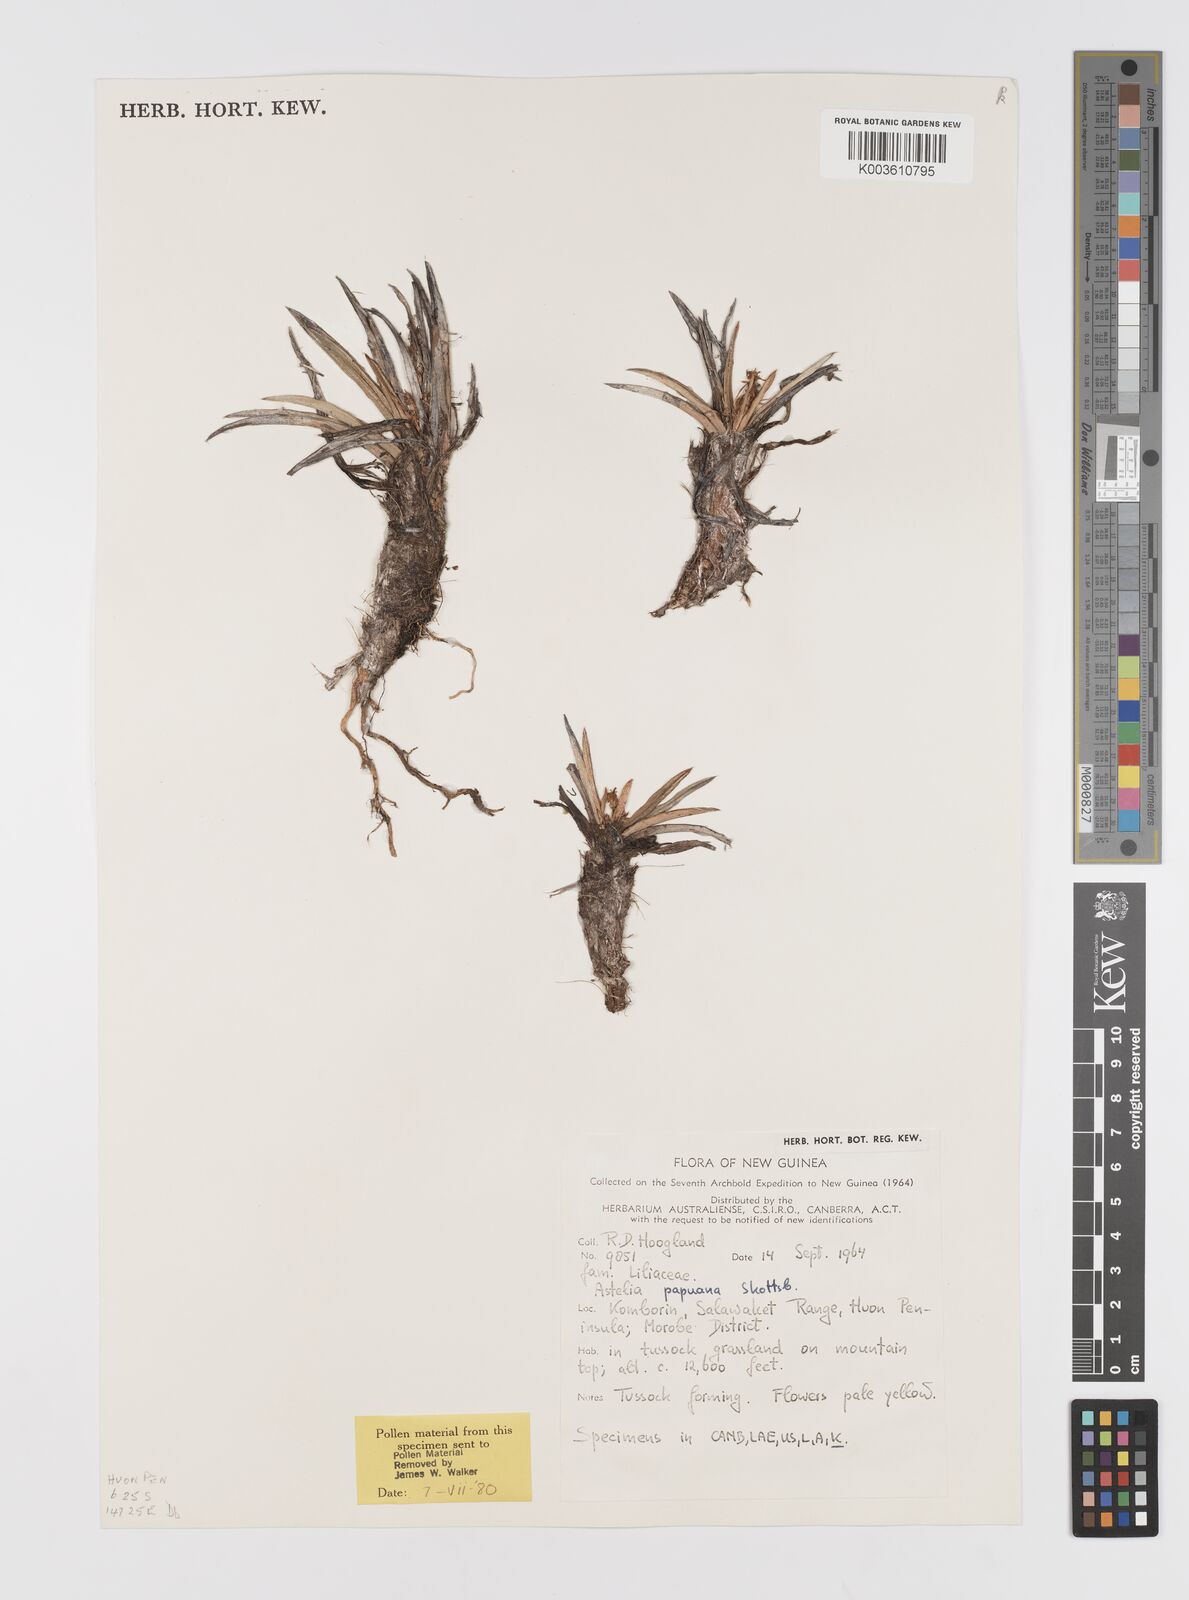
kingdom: Plantae
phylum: Tracheophyta
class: Liliopsida
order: Asparagales
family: Asteliaceae
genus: Astelia
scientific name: Astelia papuana
